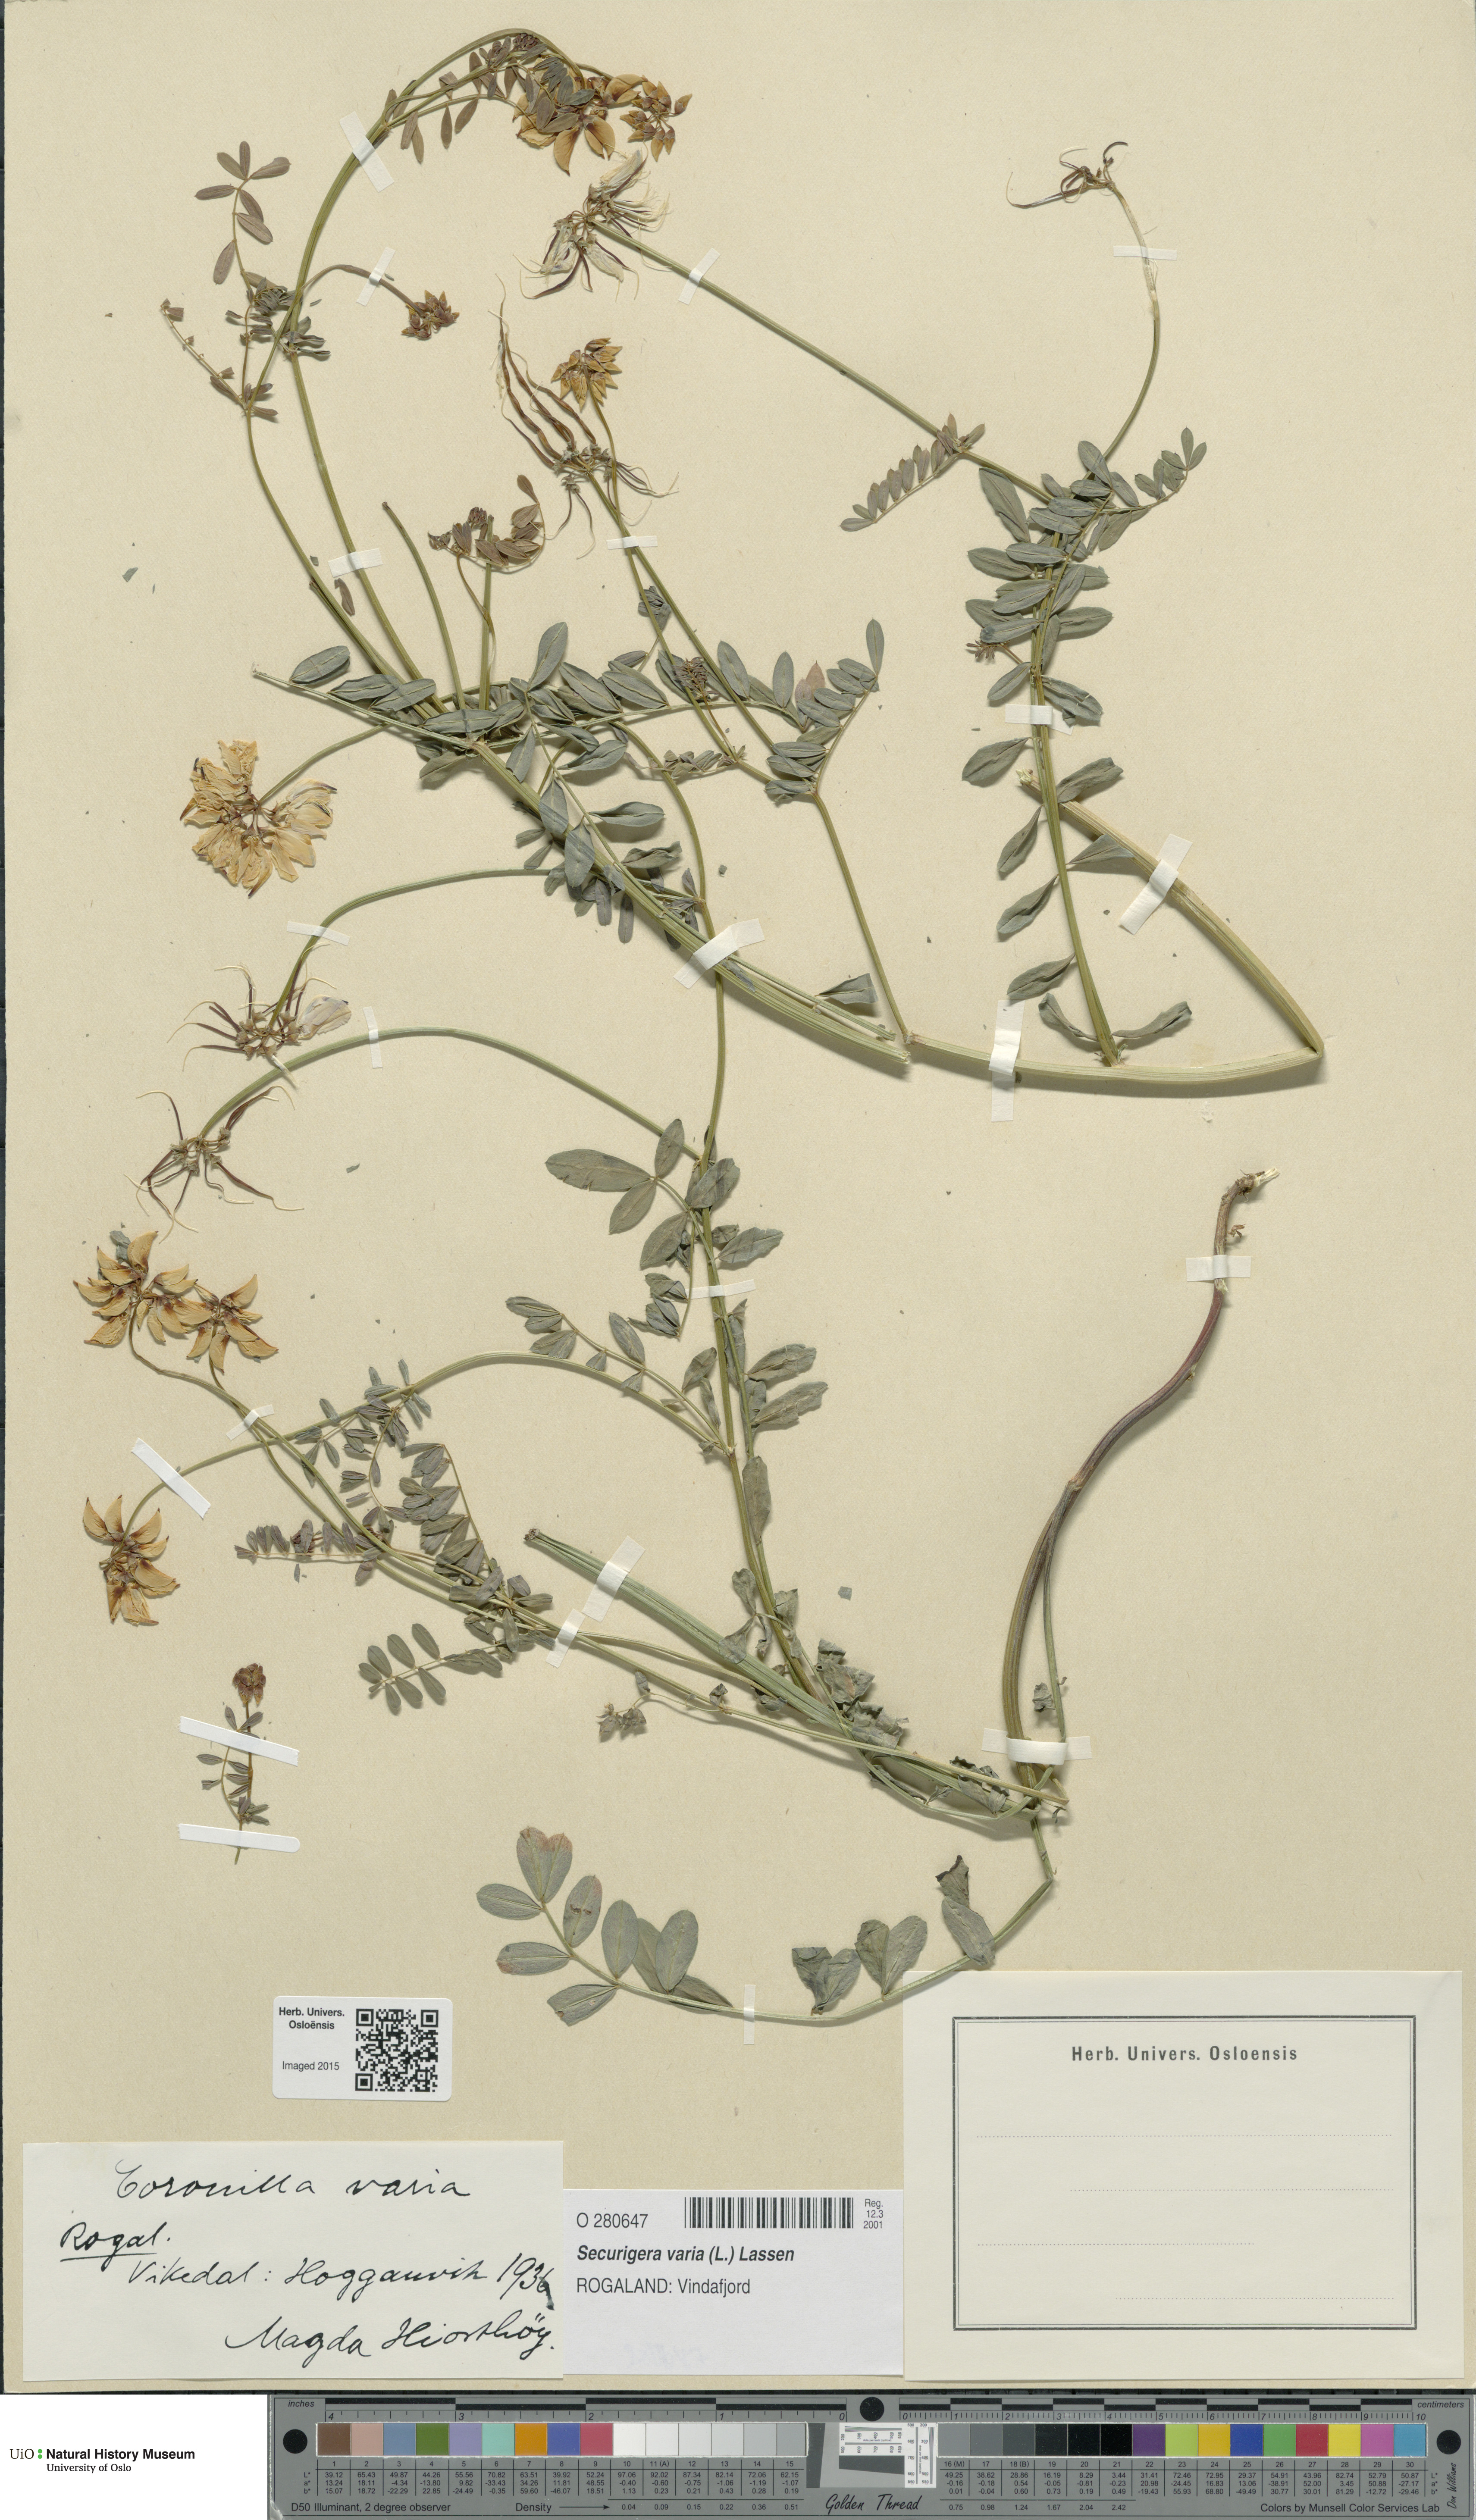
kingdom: Plantae
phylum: Tracheophyta
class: Magnoliopsida
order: Fabales
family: Fabaceae
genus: Coronilla
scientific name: Coronilla varia
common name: Crownvetch
